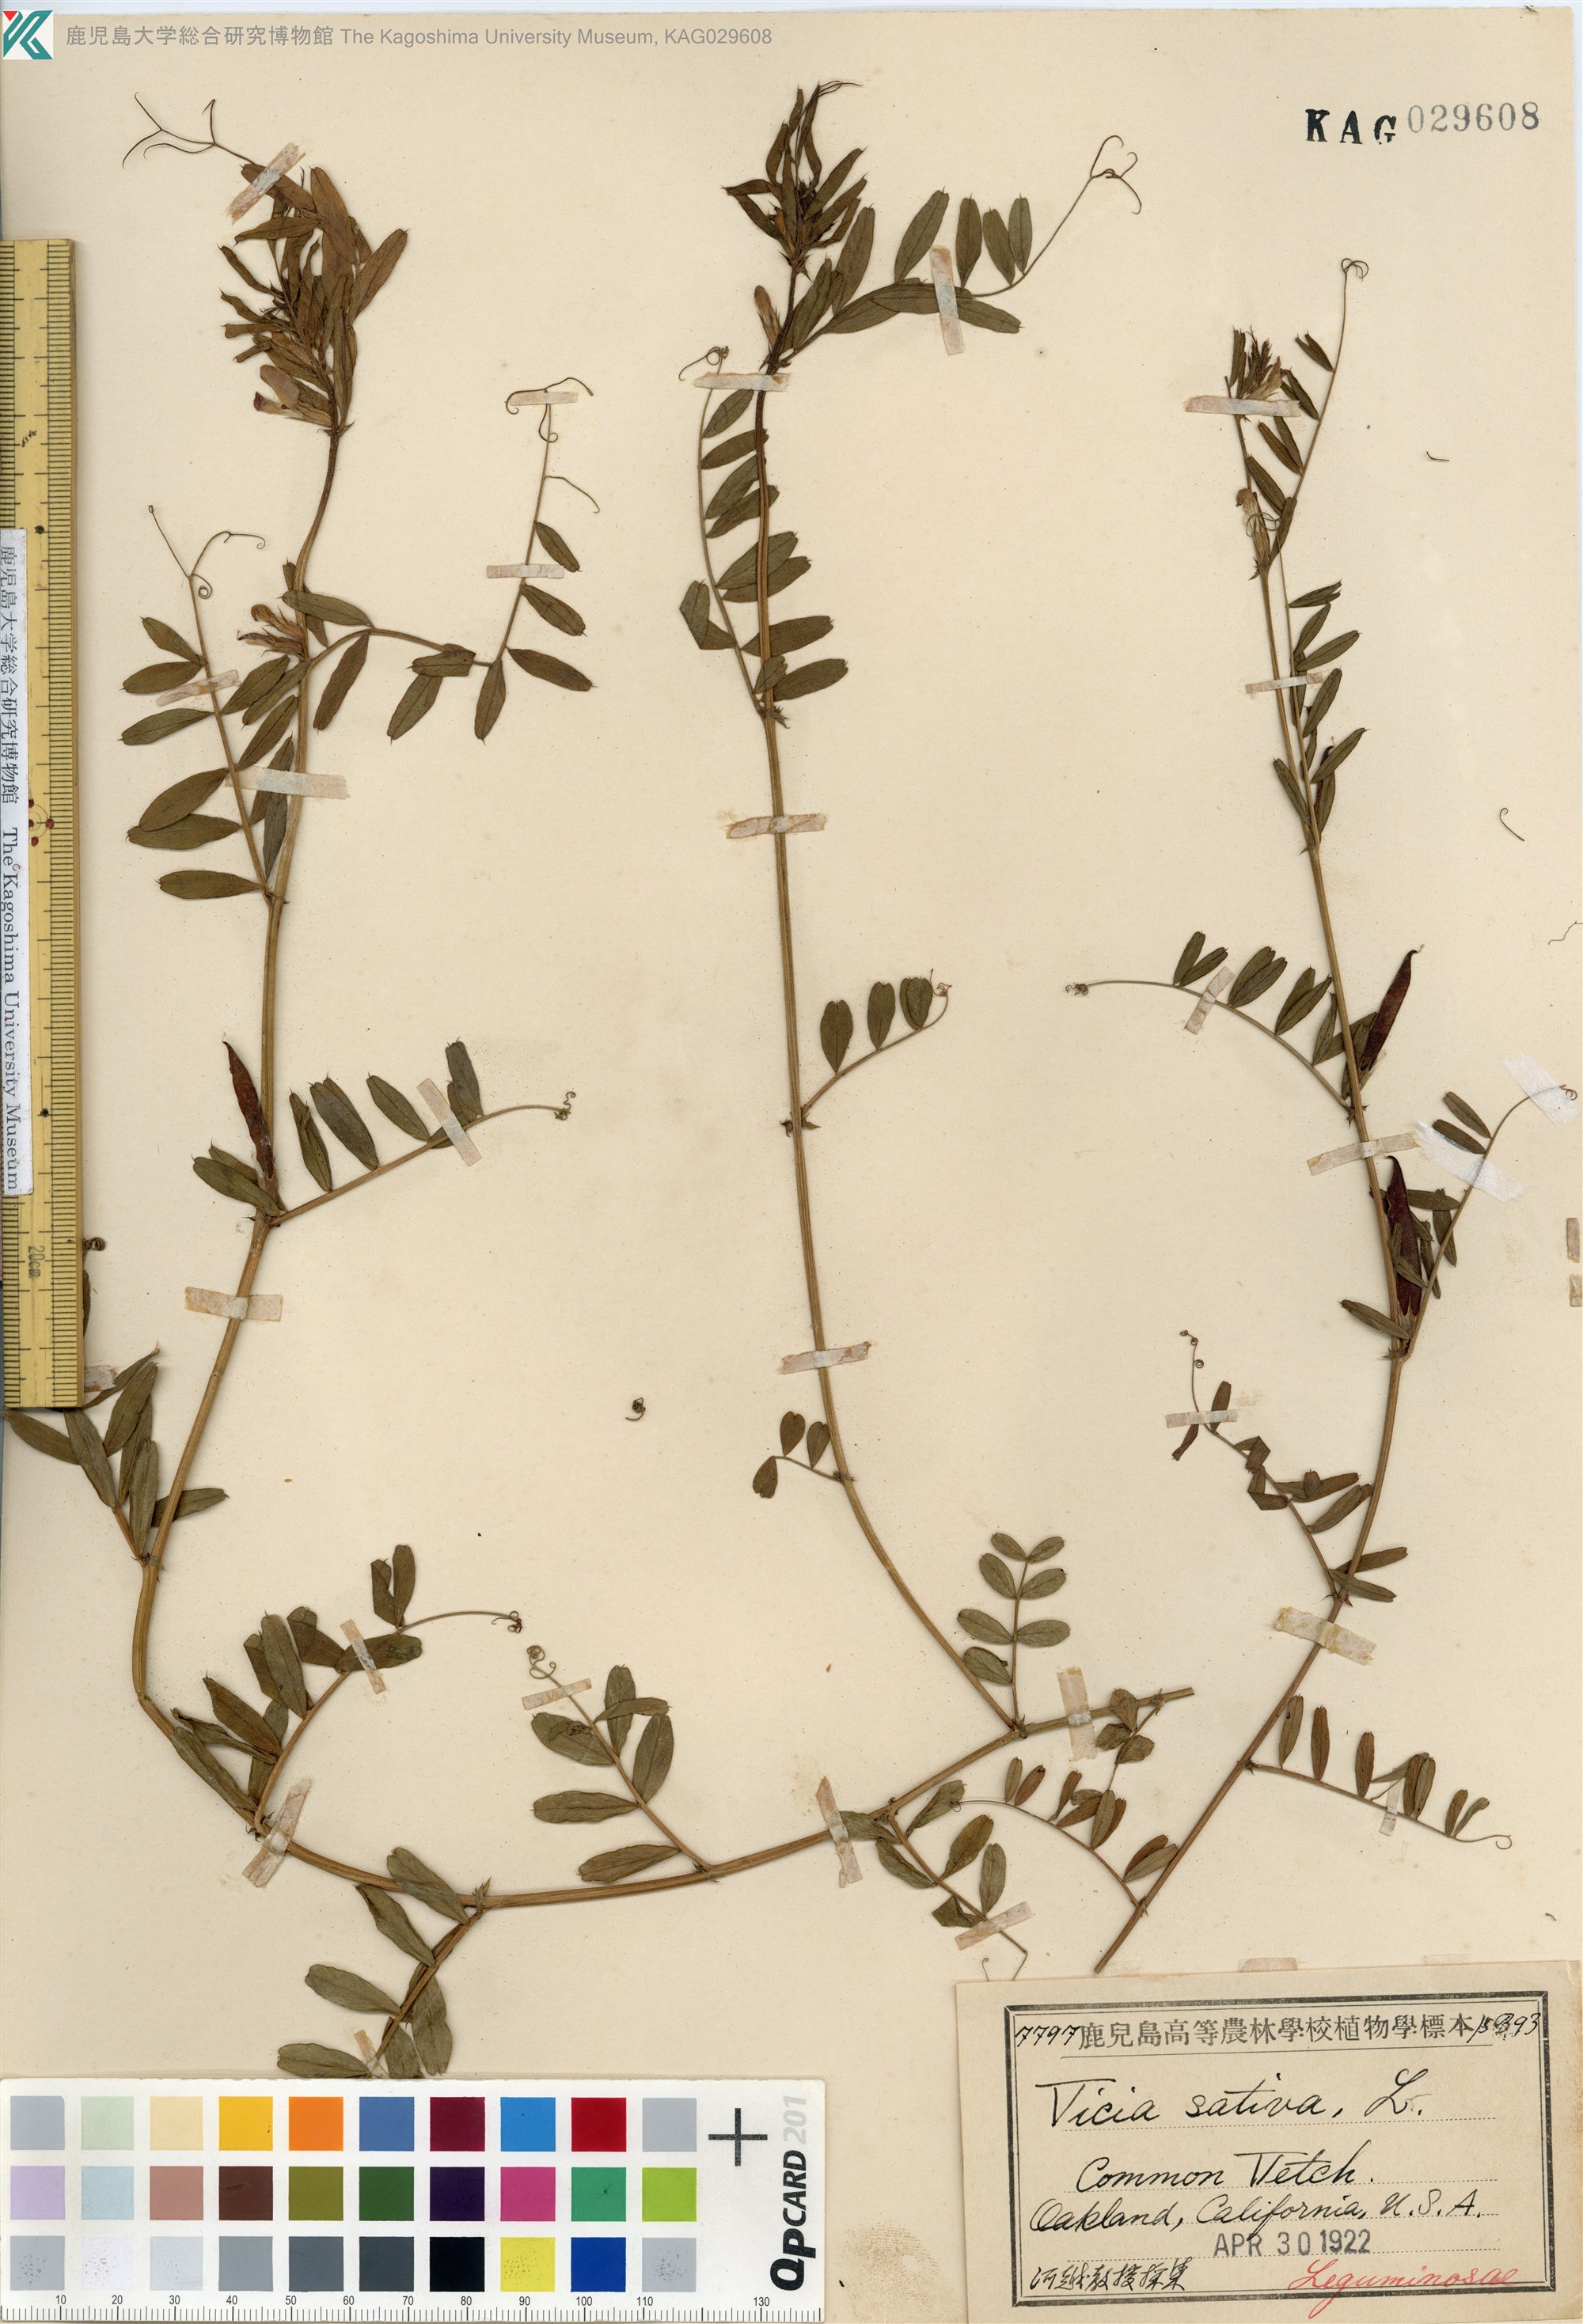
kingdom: Plantae
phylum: Tracheophyta
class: Magnoliopsida
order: Fabales
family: Fabaceae
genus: Vicia
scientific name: Vicia sativa
